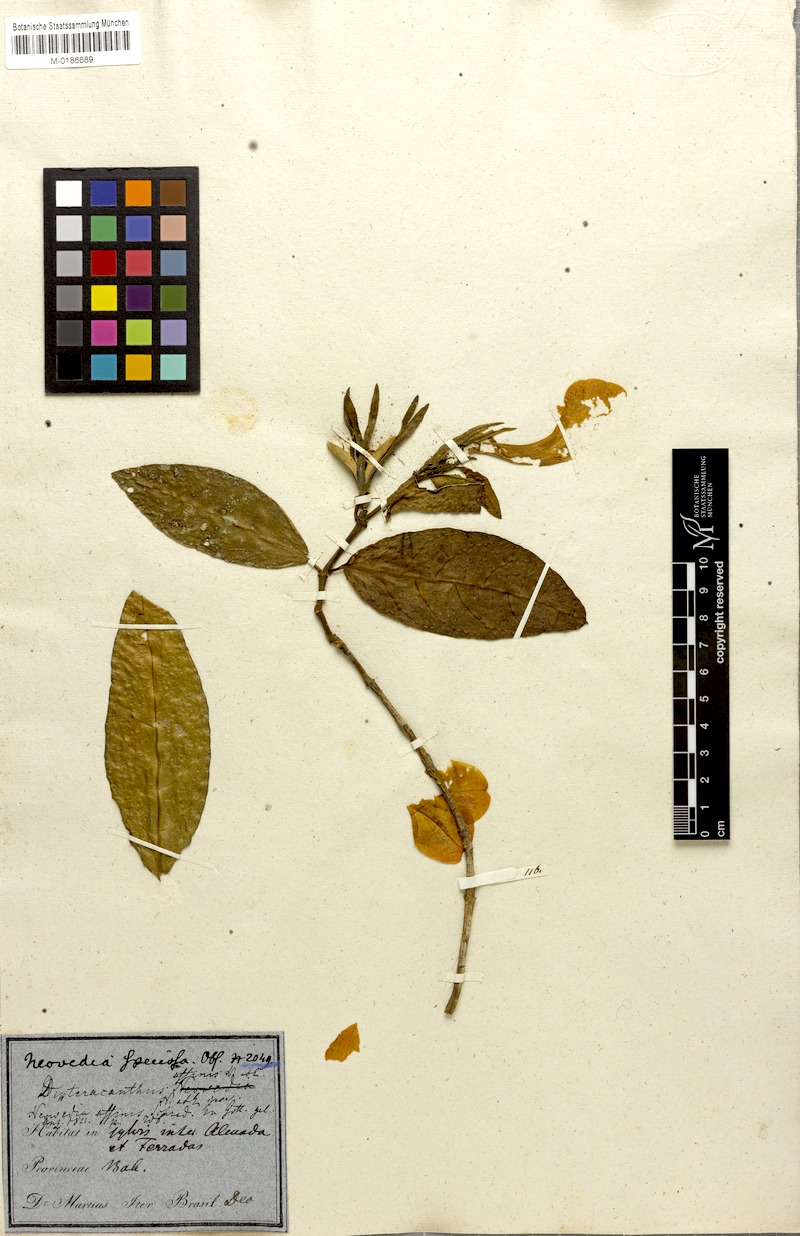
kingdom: Plantae
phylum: Tracheophyta
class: Magnoliopsida
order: Lamiales
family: Acanthaceae
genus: Ruellia
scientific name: Ruellia affinis
